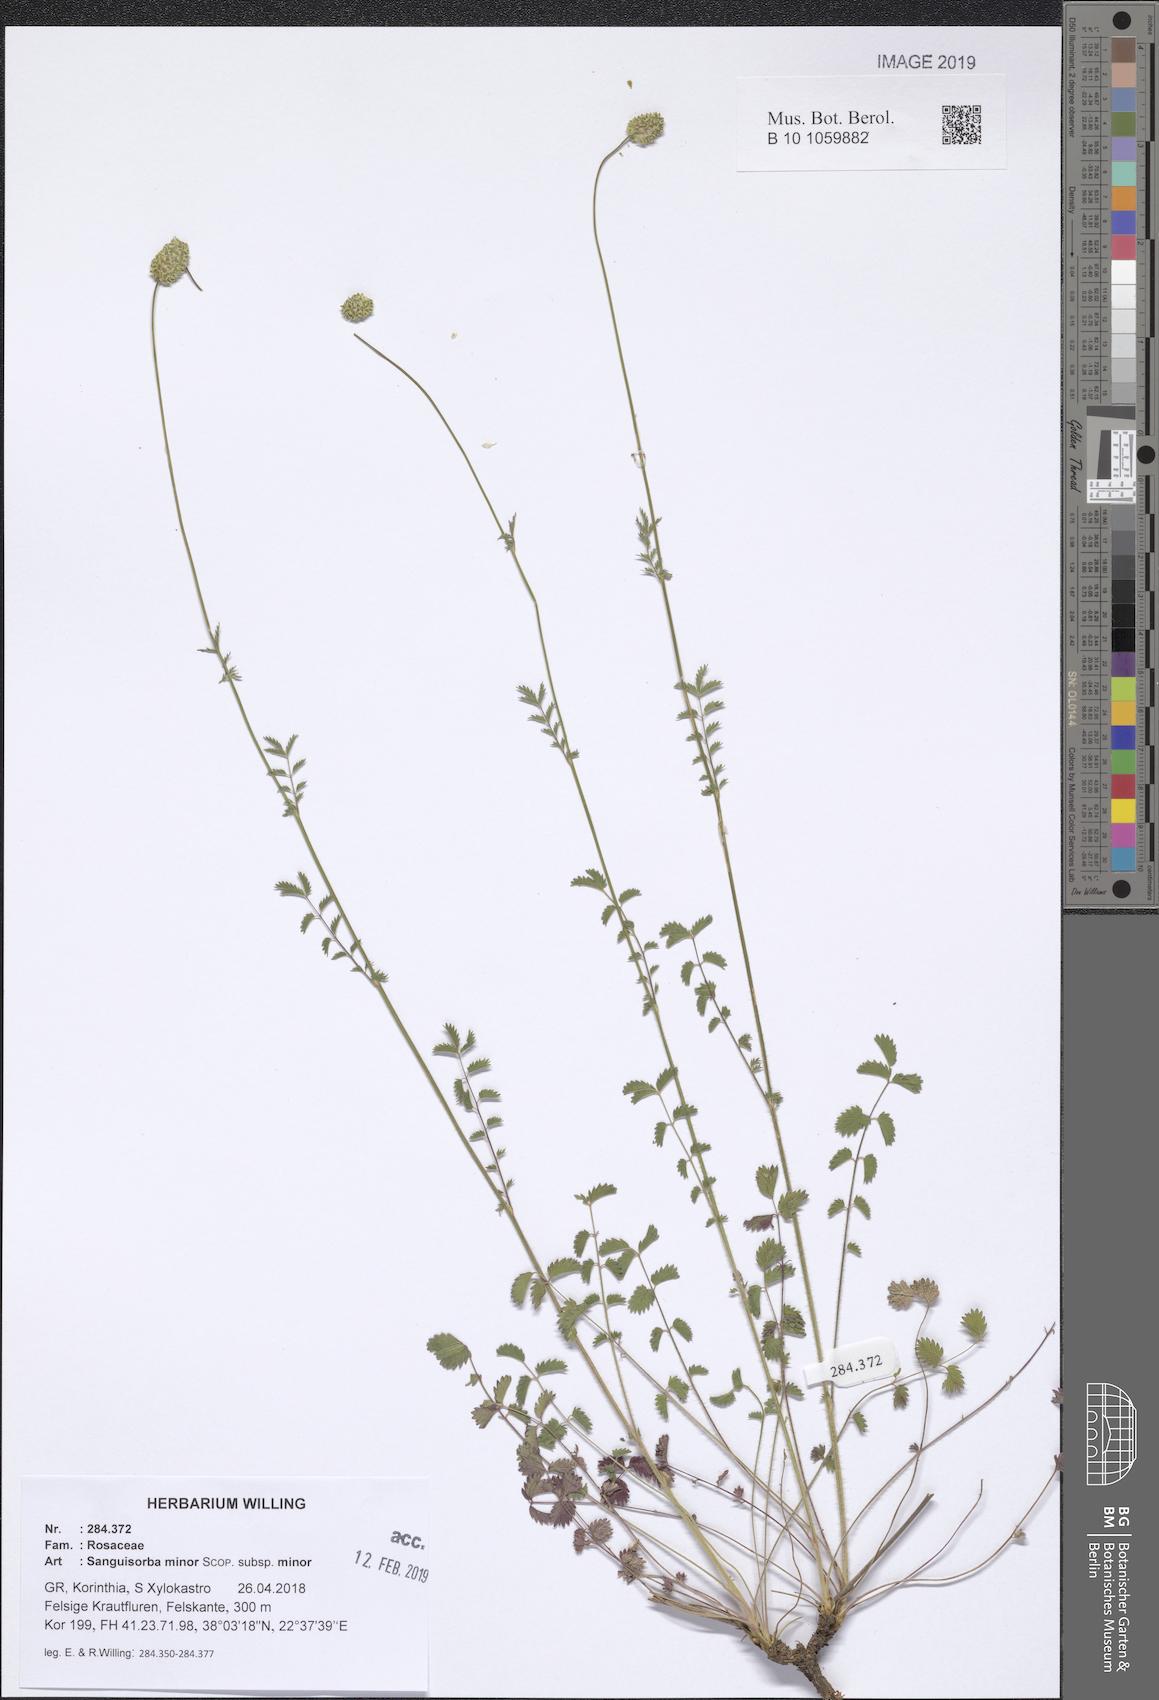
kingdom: Plantae
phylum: Tracheophyta
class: Magnoliopsida
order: Rosales
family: Rosaceae
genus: Poterium
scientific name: Poterium sanguisorba
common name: Salad burnet
